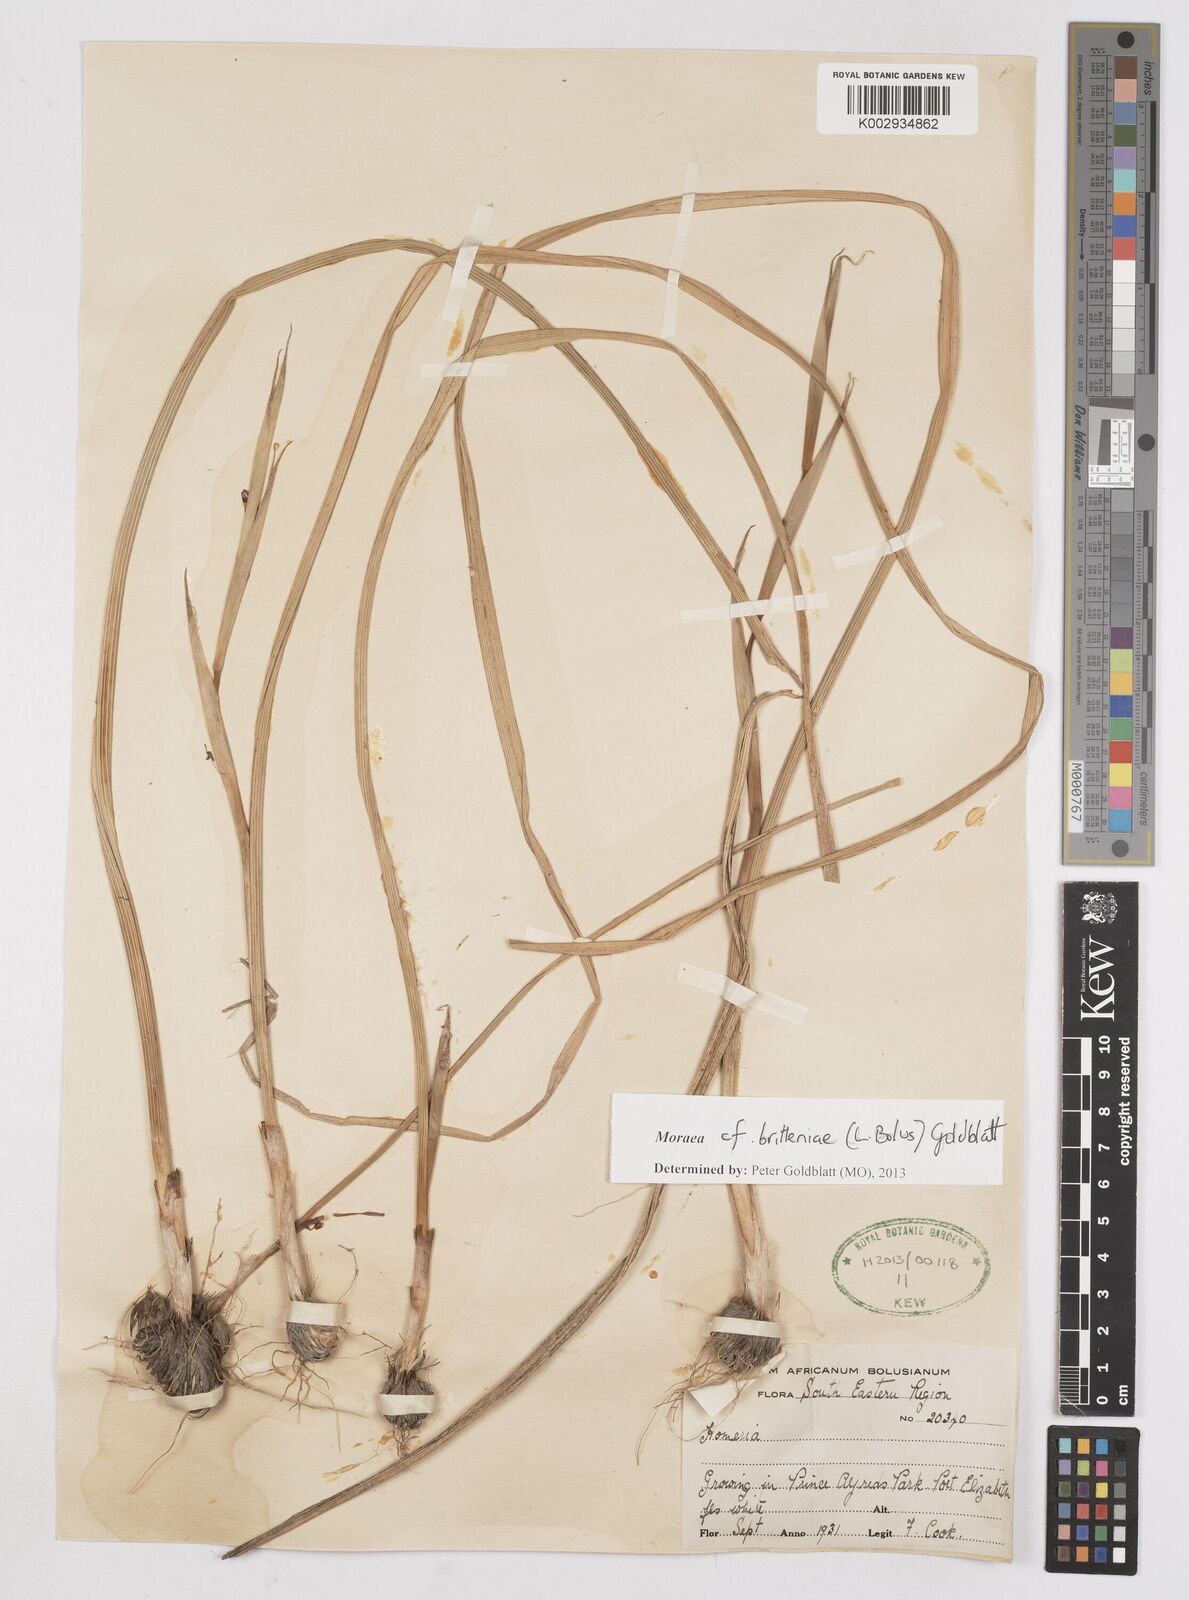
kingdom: Plantae
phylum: Tracheophyta
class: Liliopsida
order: Asparagales
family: Iridaceae
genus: Moraea
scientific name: Moraea britteniae
